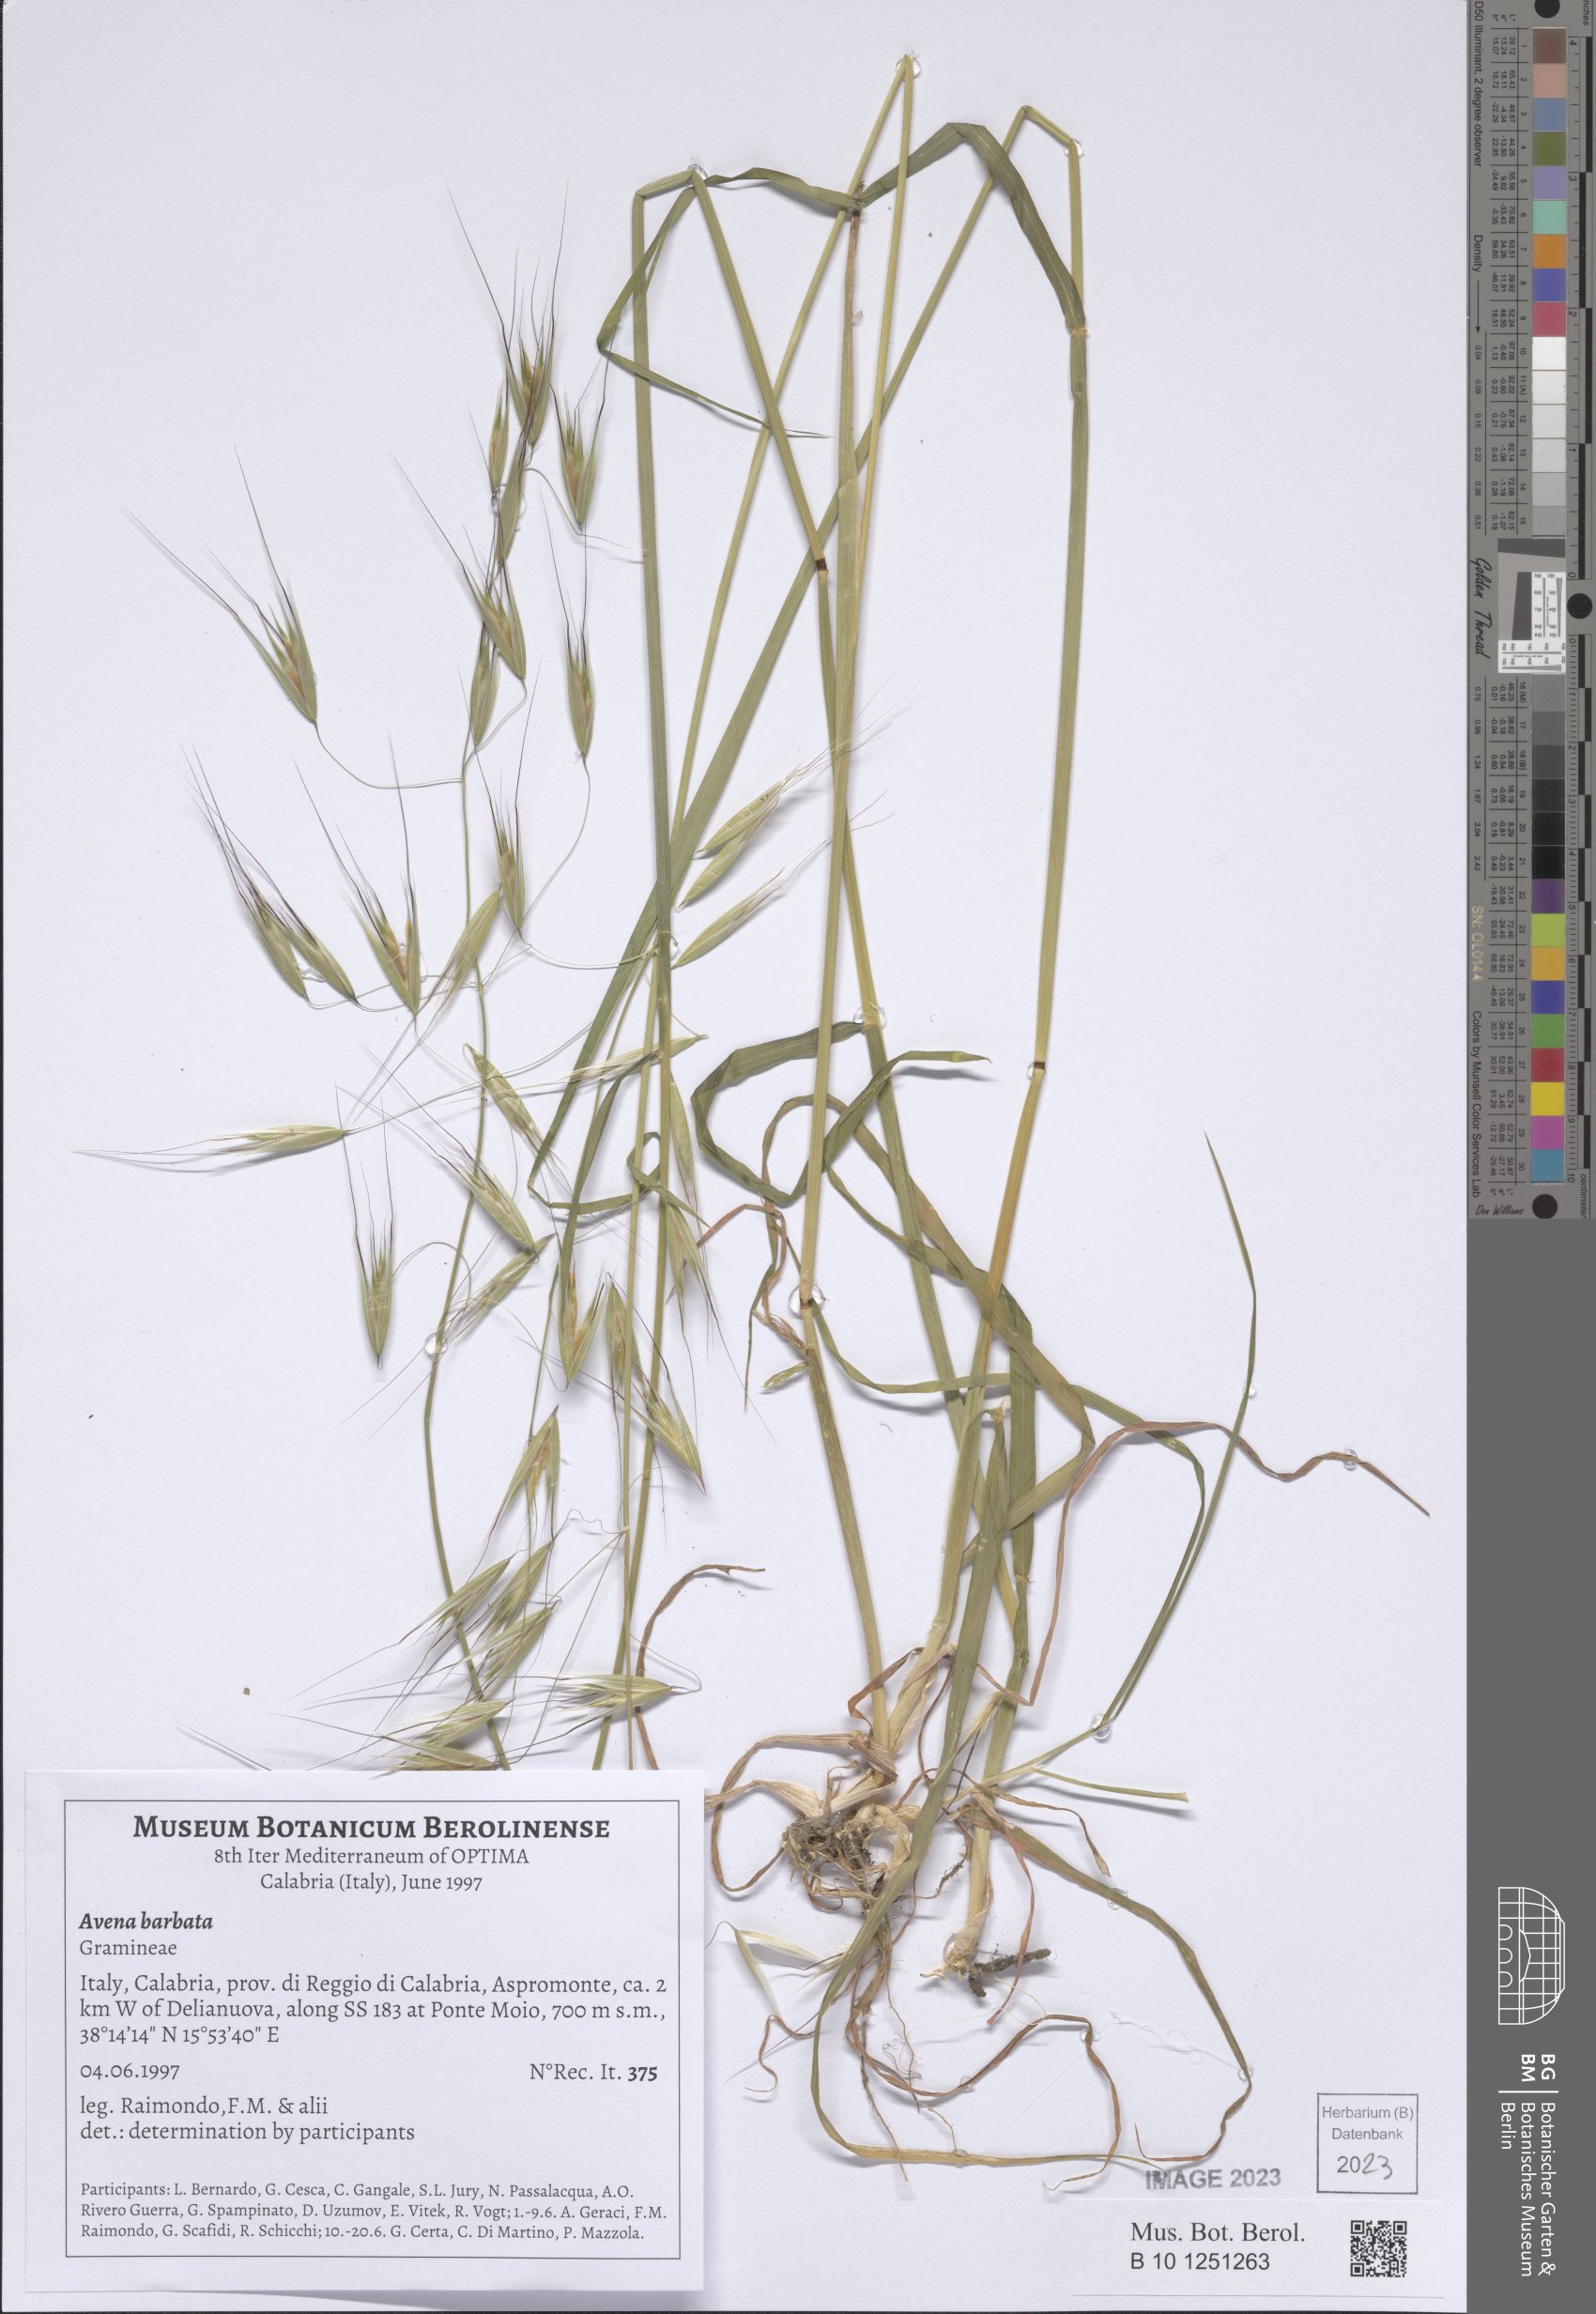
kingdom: Plantae
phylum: Tracheophyta
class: Liliopsida
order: Poales
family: Poaceae
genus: Avena
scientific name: Avena barbata
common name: Slender oat
